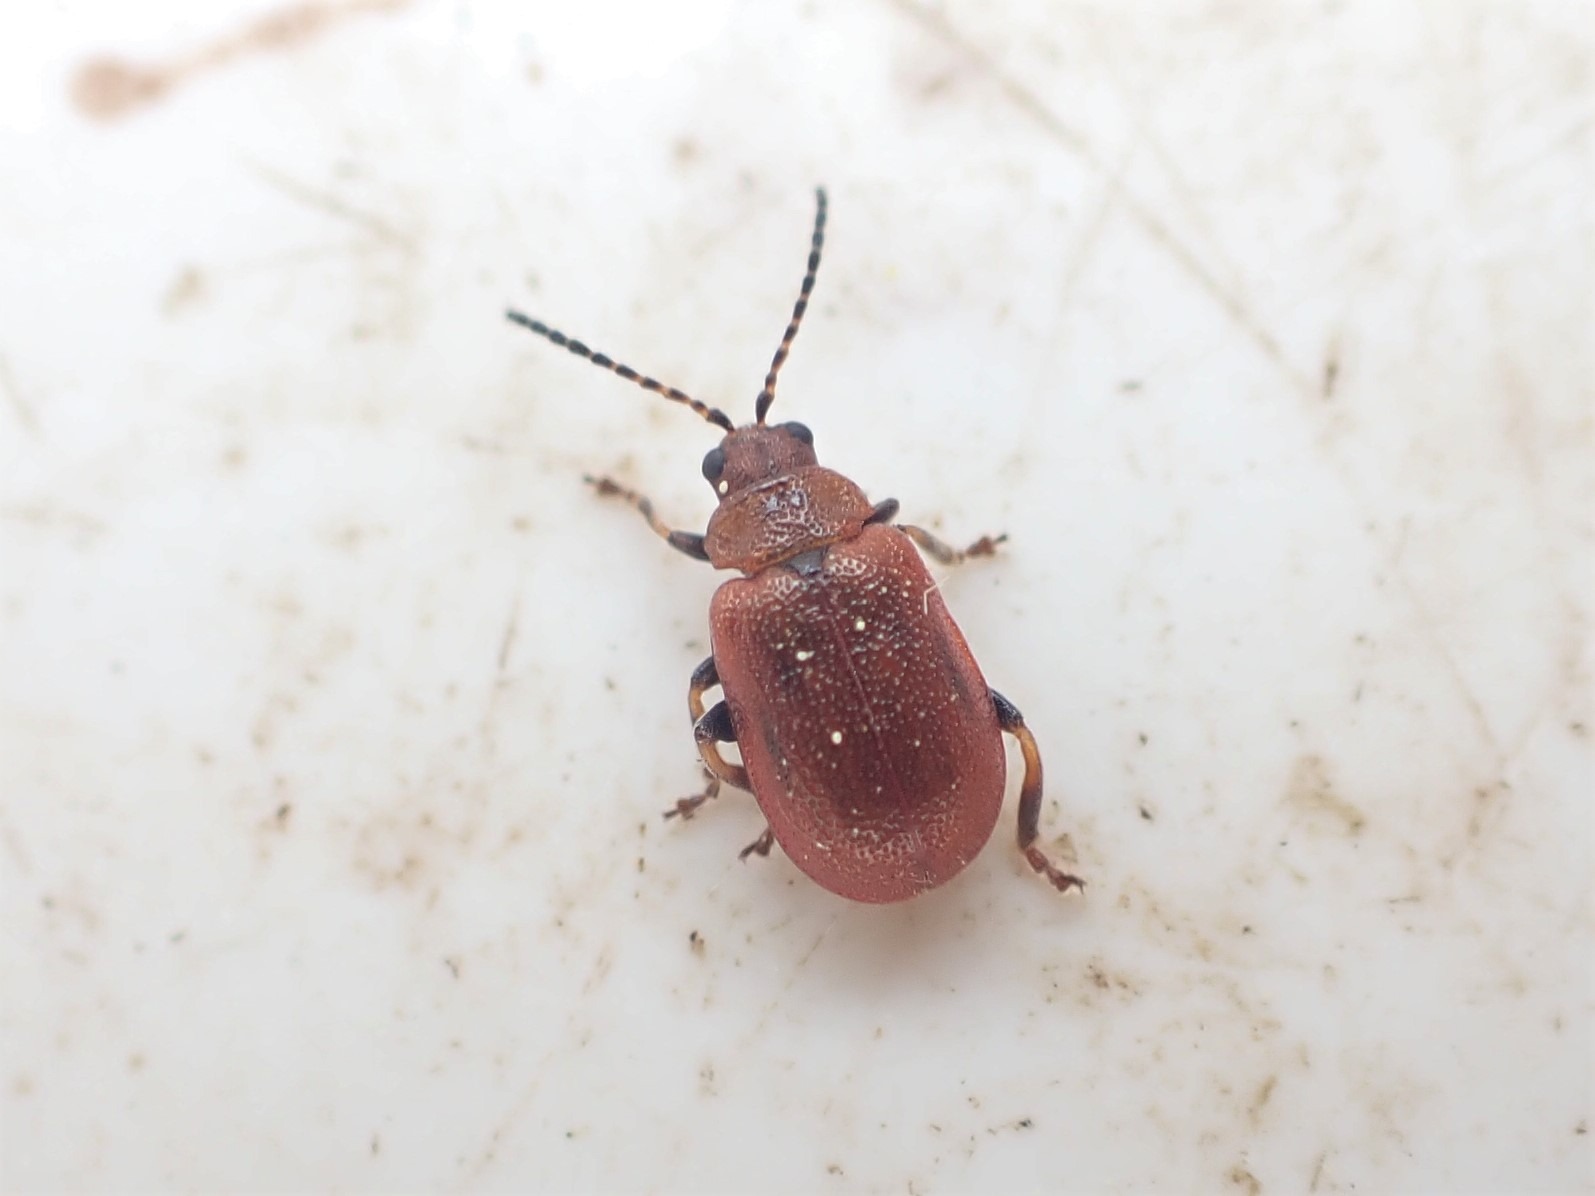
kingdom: Animalia
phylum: Arthropoda
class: Insecta
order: Coleoptera
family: Chrysomelidae
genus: Lochmaea
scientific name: Lochmaea crataegi
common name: Tjørnebladbille
